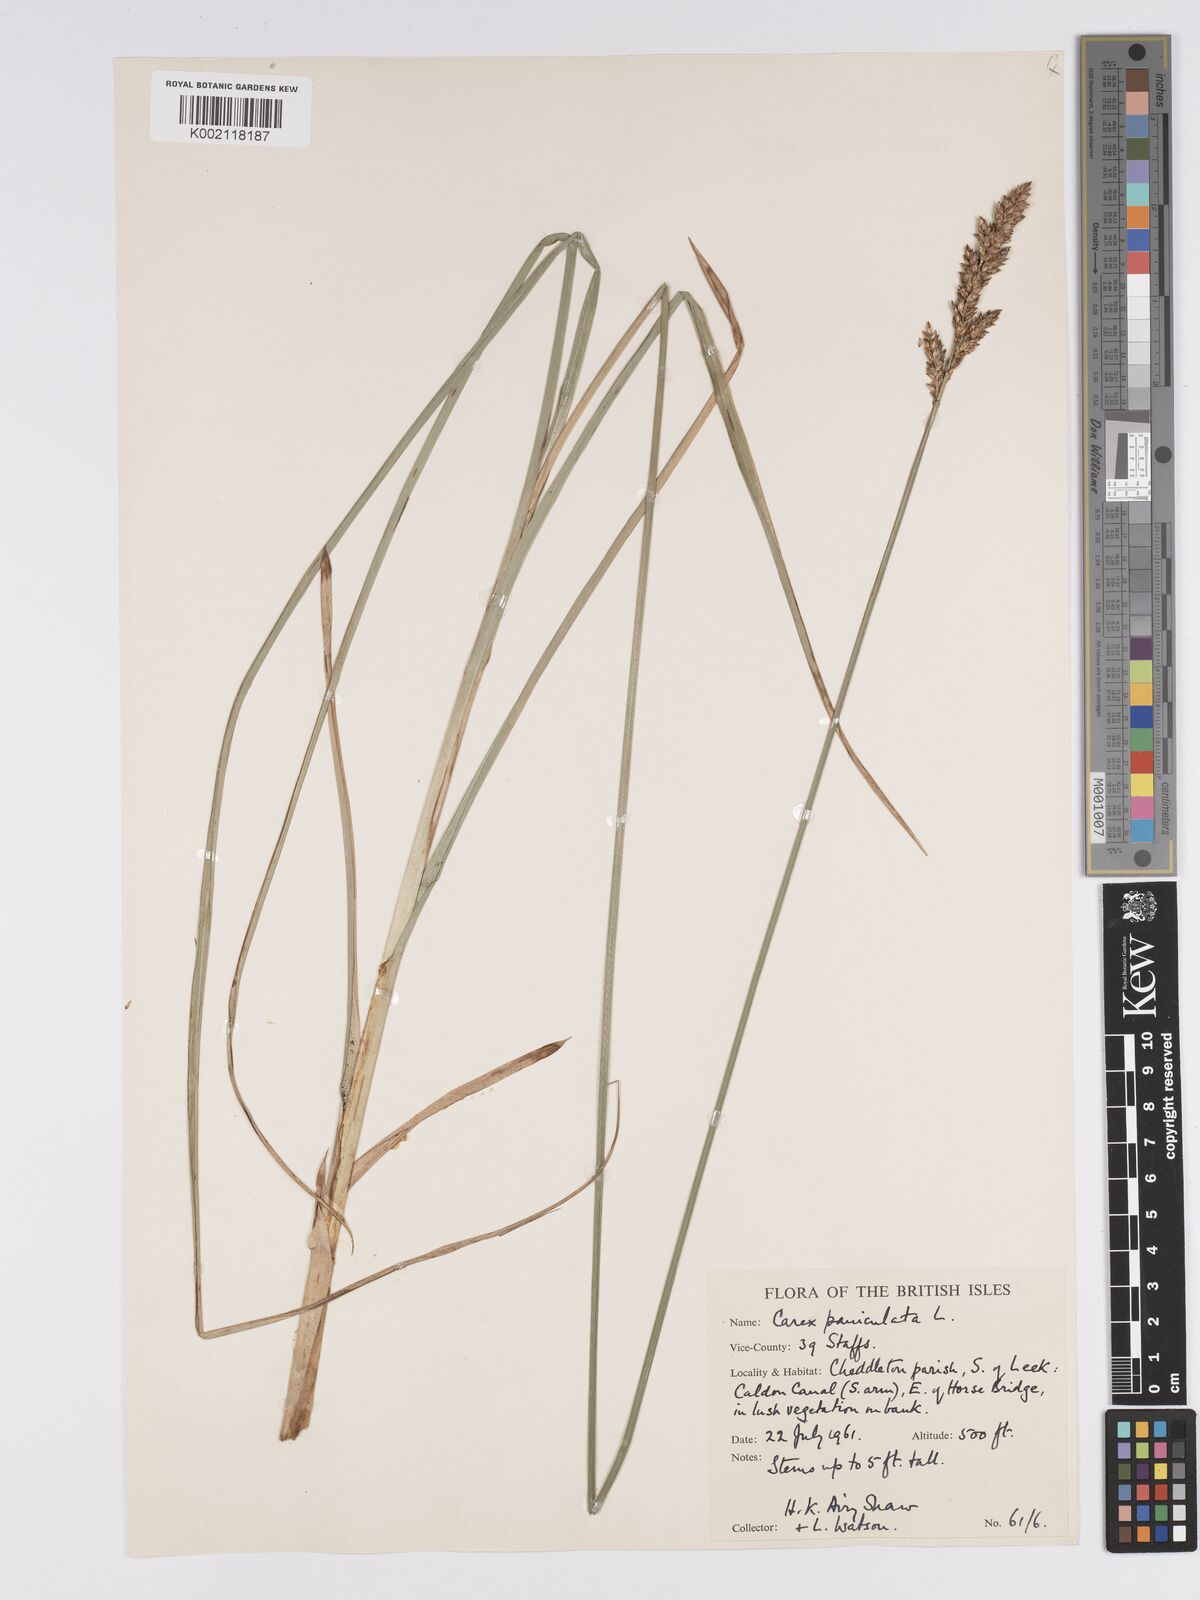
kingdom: Plantae
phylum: Tracheophyta
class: Liliopsida
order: Poales
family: Cyperaceae
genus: Carex
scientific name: Carex paniculata
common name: Greater tussock-sedge
